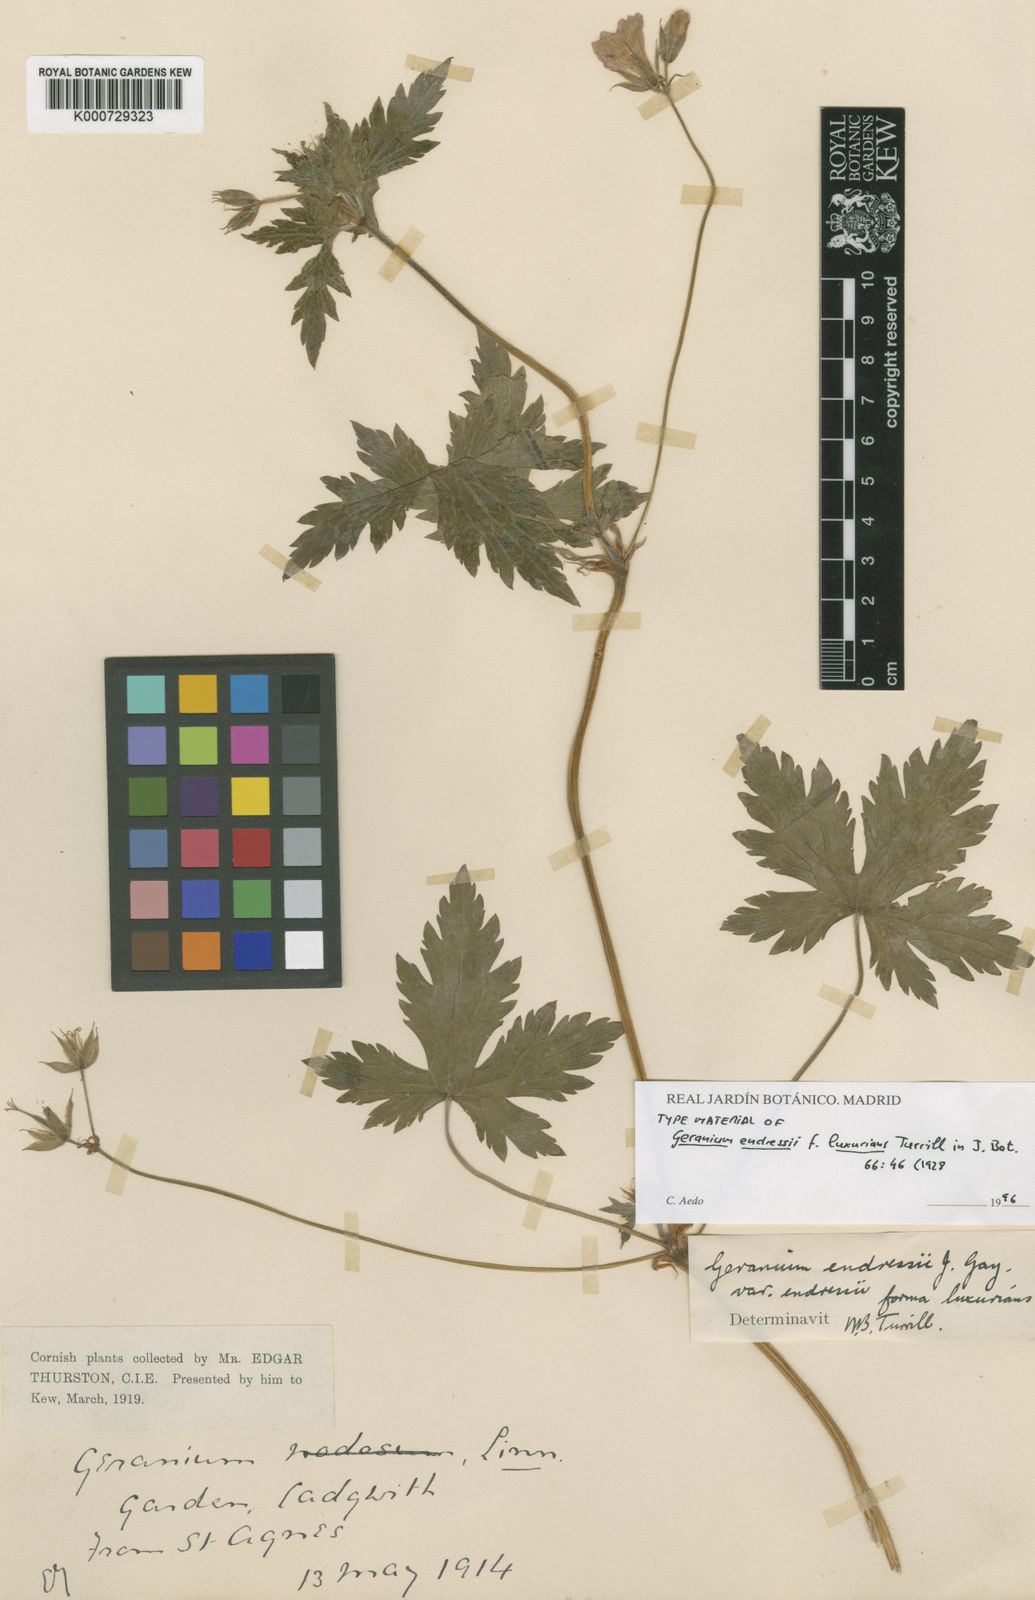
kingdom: Plantae
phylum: Tracheophyta
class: Magnoliopsida
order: Geraniales
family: Geraniaceae
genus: Geranium
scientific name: Geranium endressii
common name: French crane's-bill
